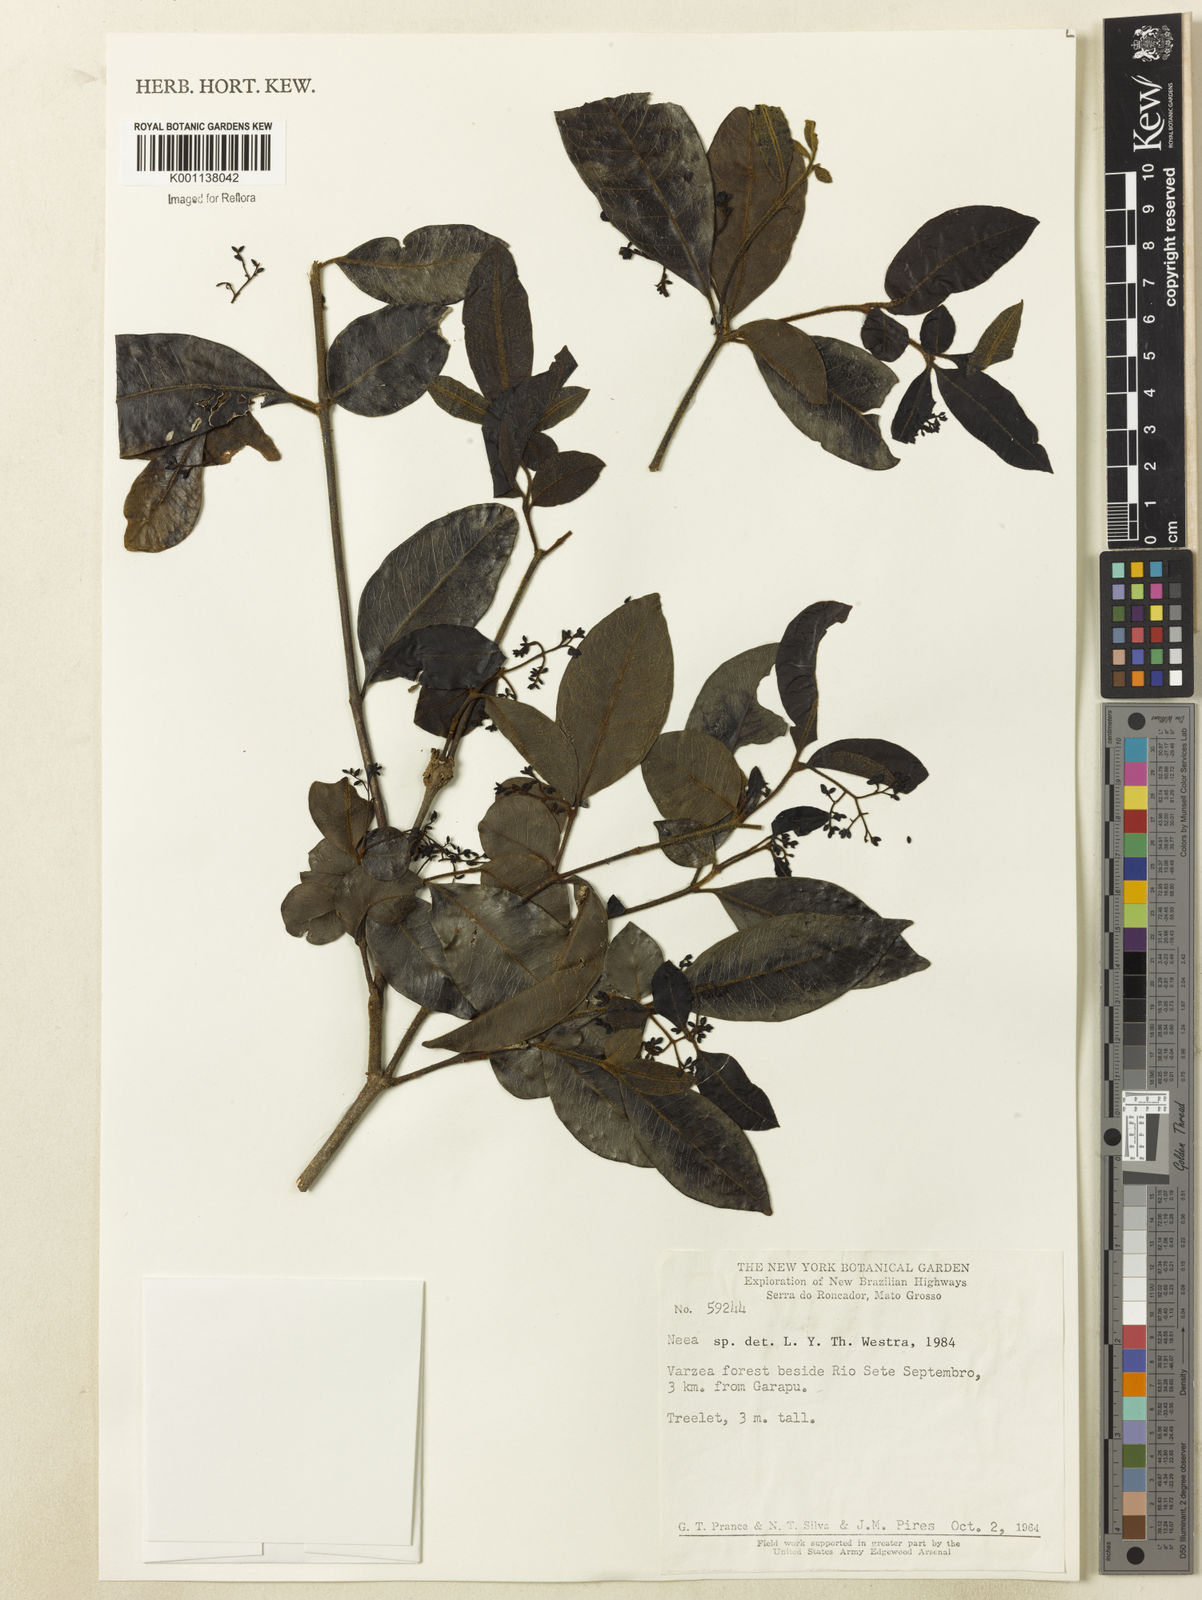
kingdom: Plantae
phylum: Tracheophyta
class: Magnoliopsida
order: Caryophyllales
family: Nyctaginaceae
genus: Neea
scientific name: Neea
